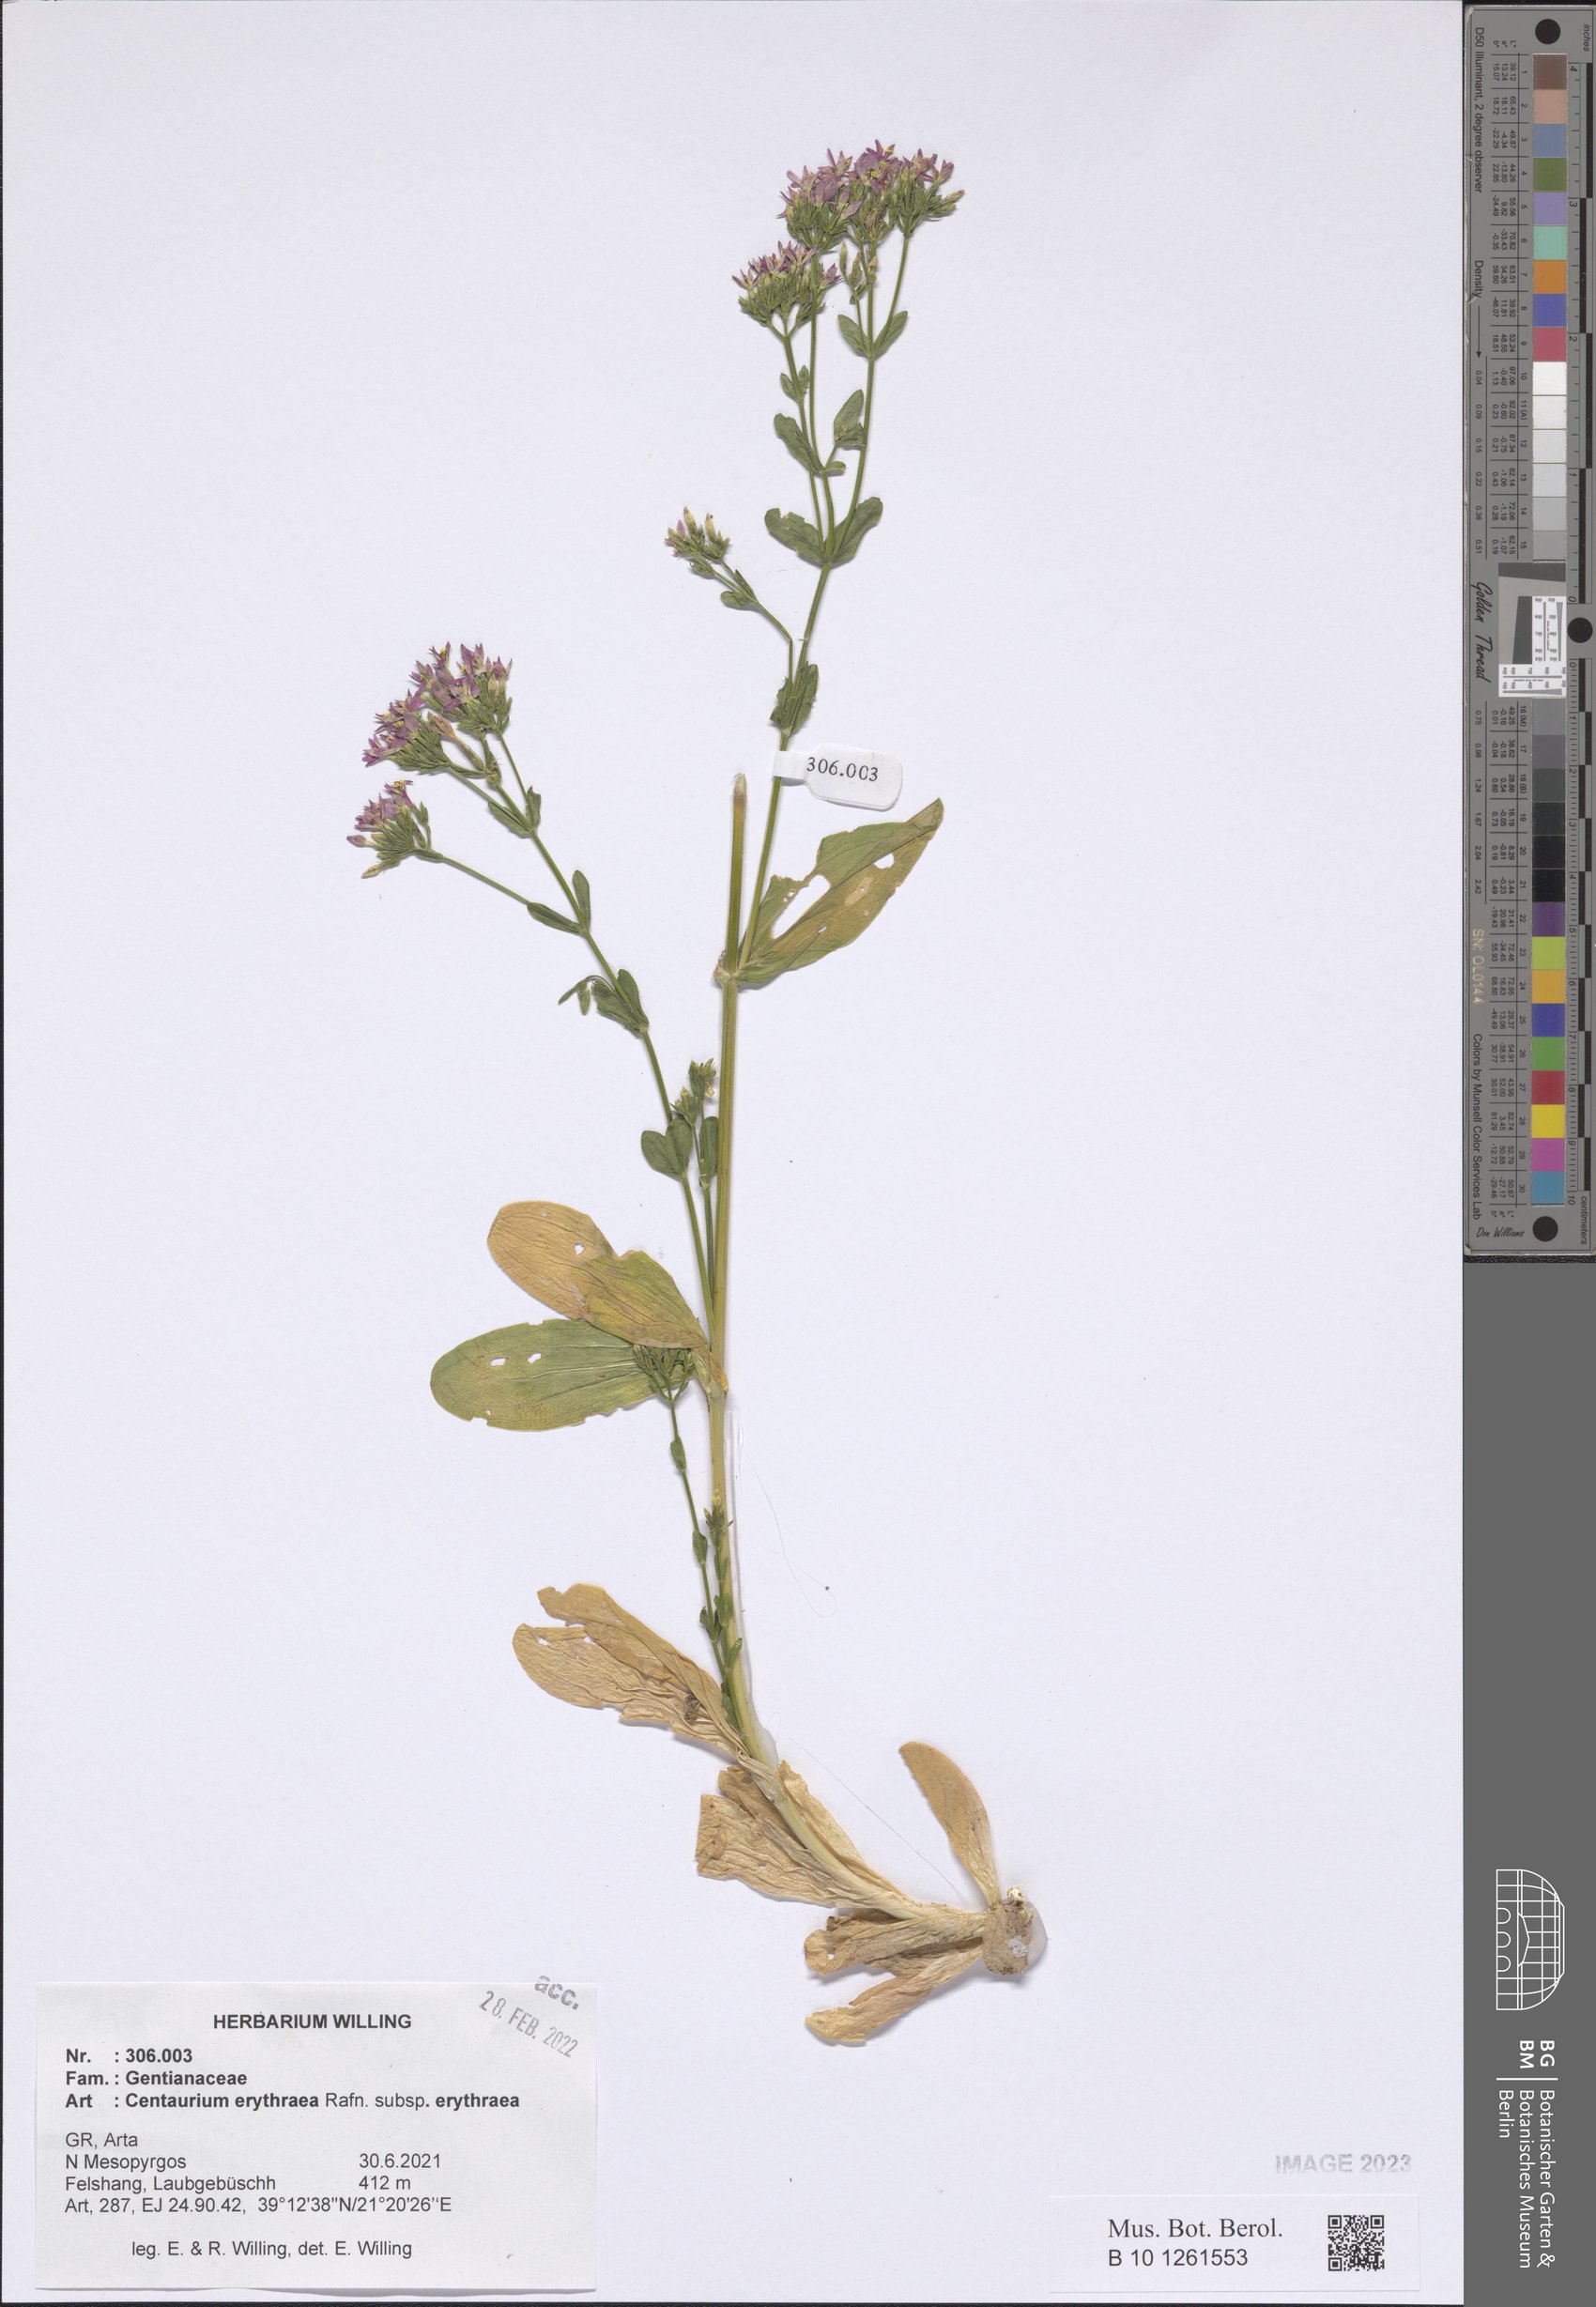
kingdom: Plantae
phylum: Tracheophyta
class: Magnoliopsida
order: Gentianales
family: Gentianaceae
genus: Centaurium
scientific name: Centaurium erythraea
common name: Common centaury
